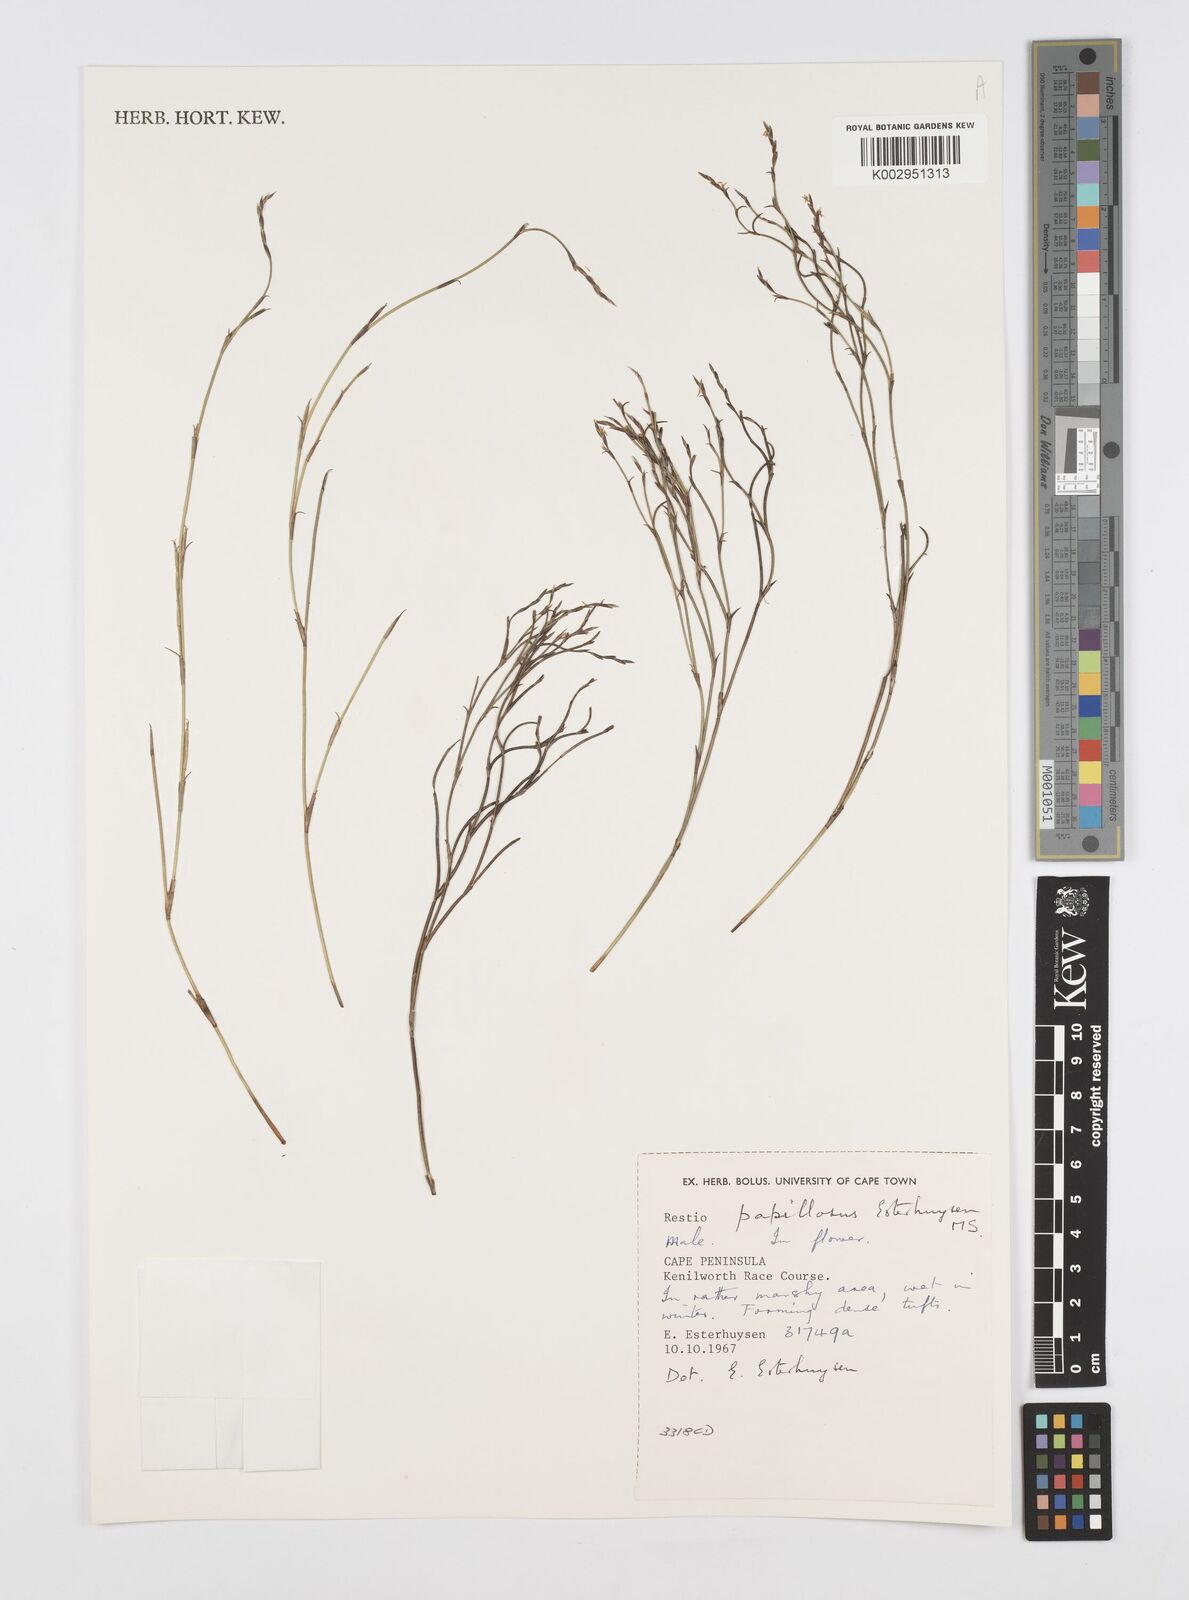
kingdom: Plantae
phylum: Tracheophyta
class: Liliopsida
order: Poales
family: Restionaceae
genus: Restio
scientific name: Restio papillosus
